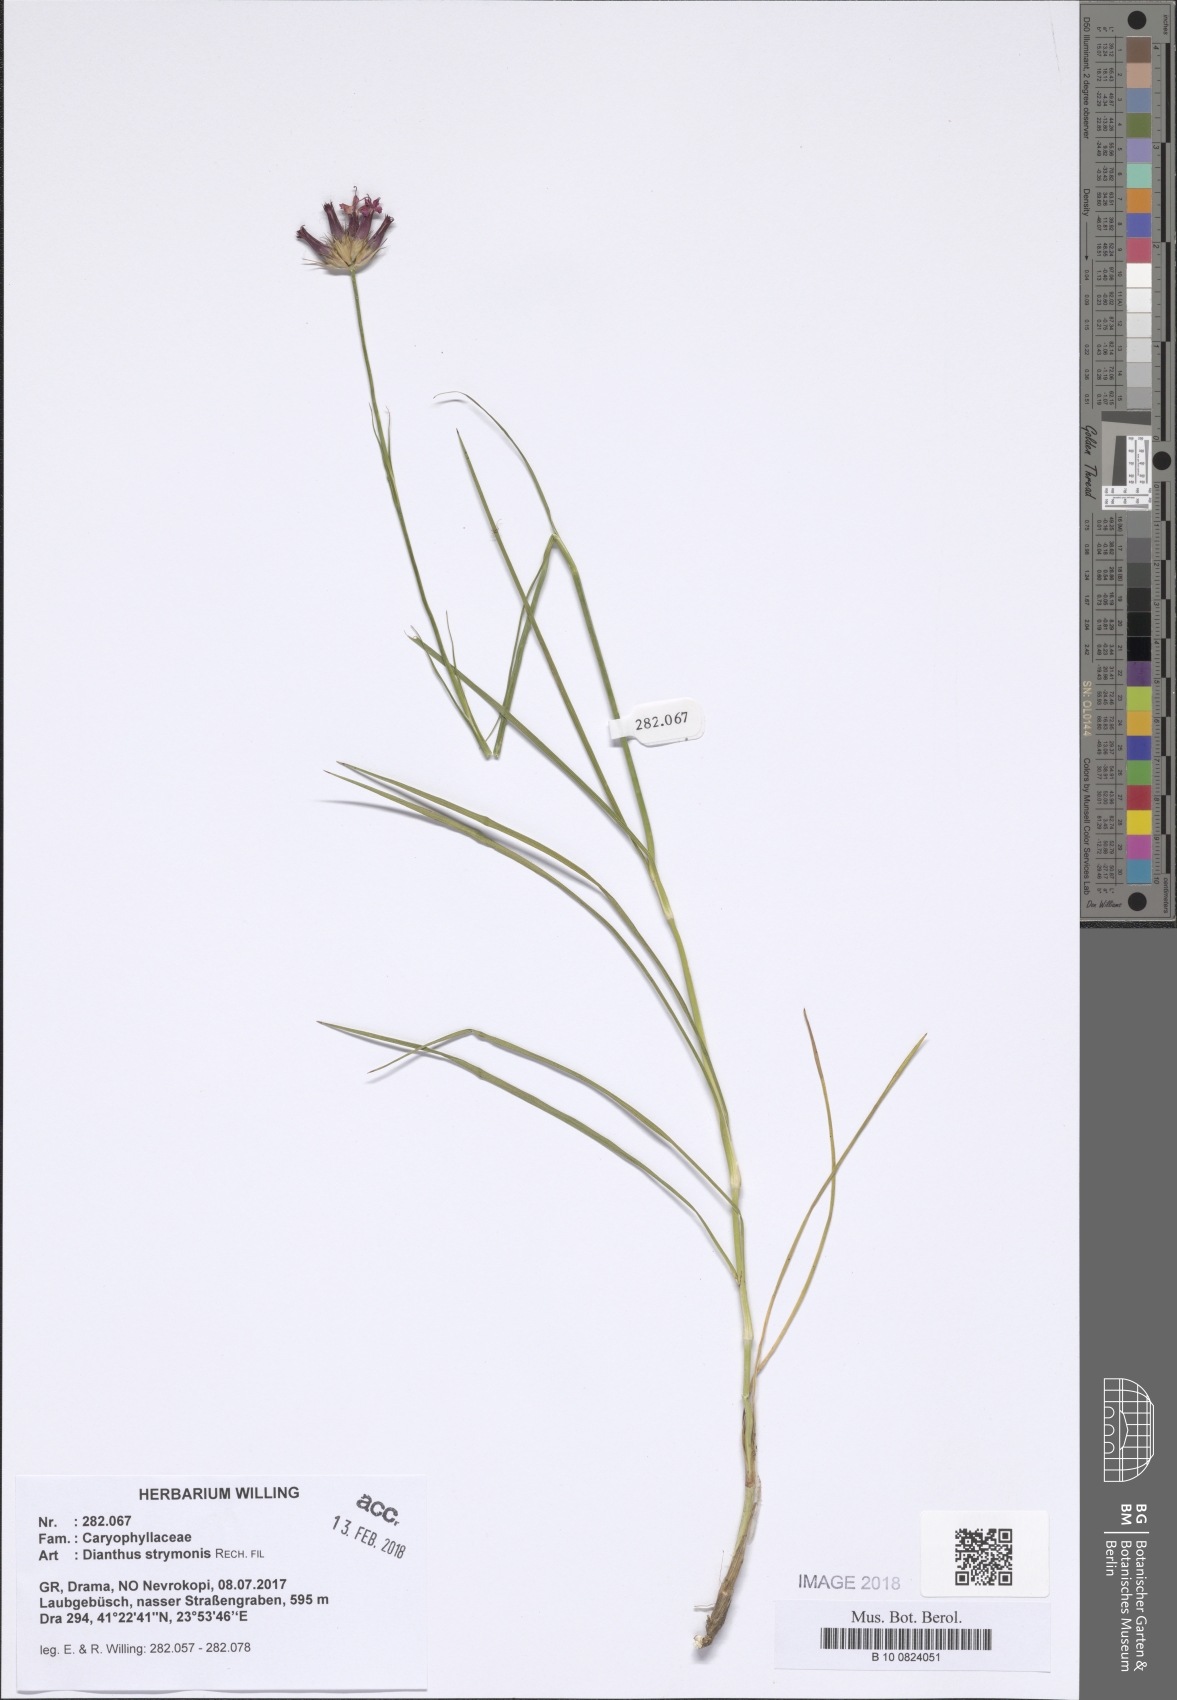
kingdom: Plantae
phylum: Tracheophyta
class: Magnoliopsida
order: Caryophyllales
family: Caryophyllaceae
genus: Dianthus
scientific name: Dianthus strymonis
